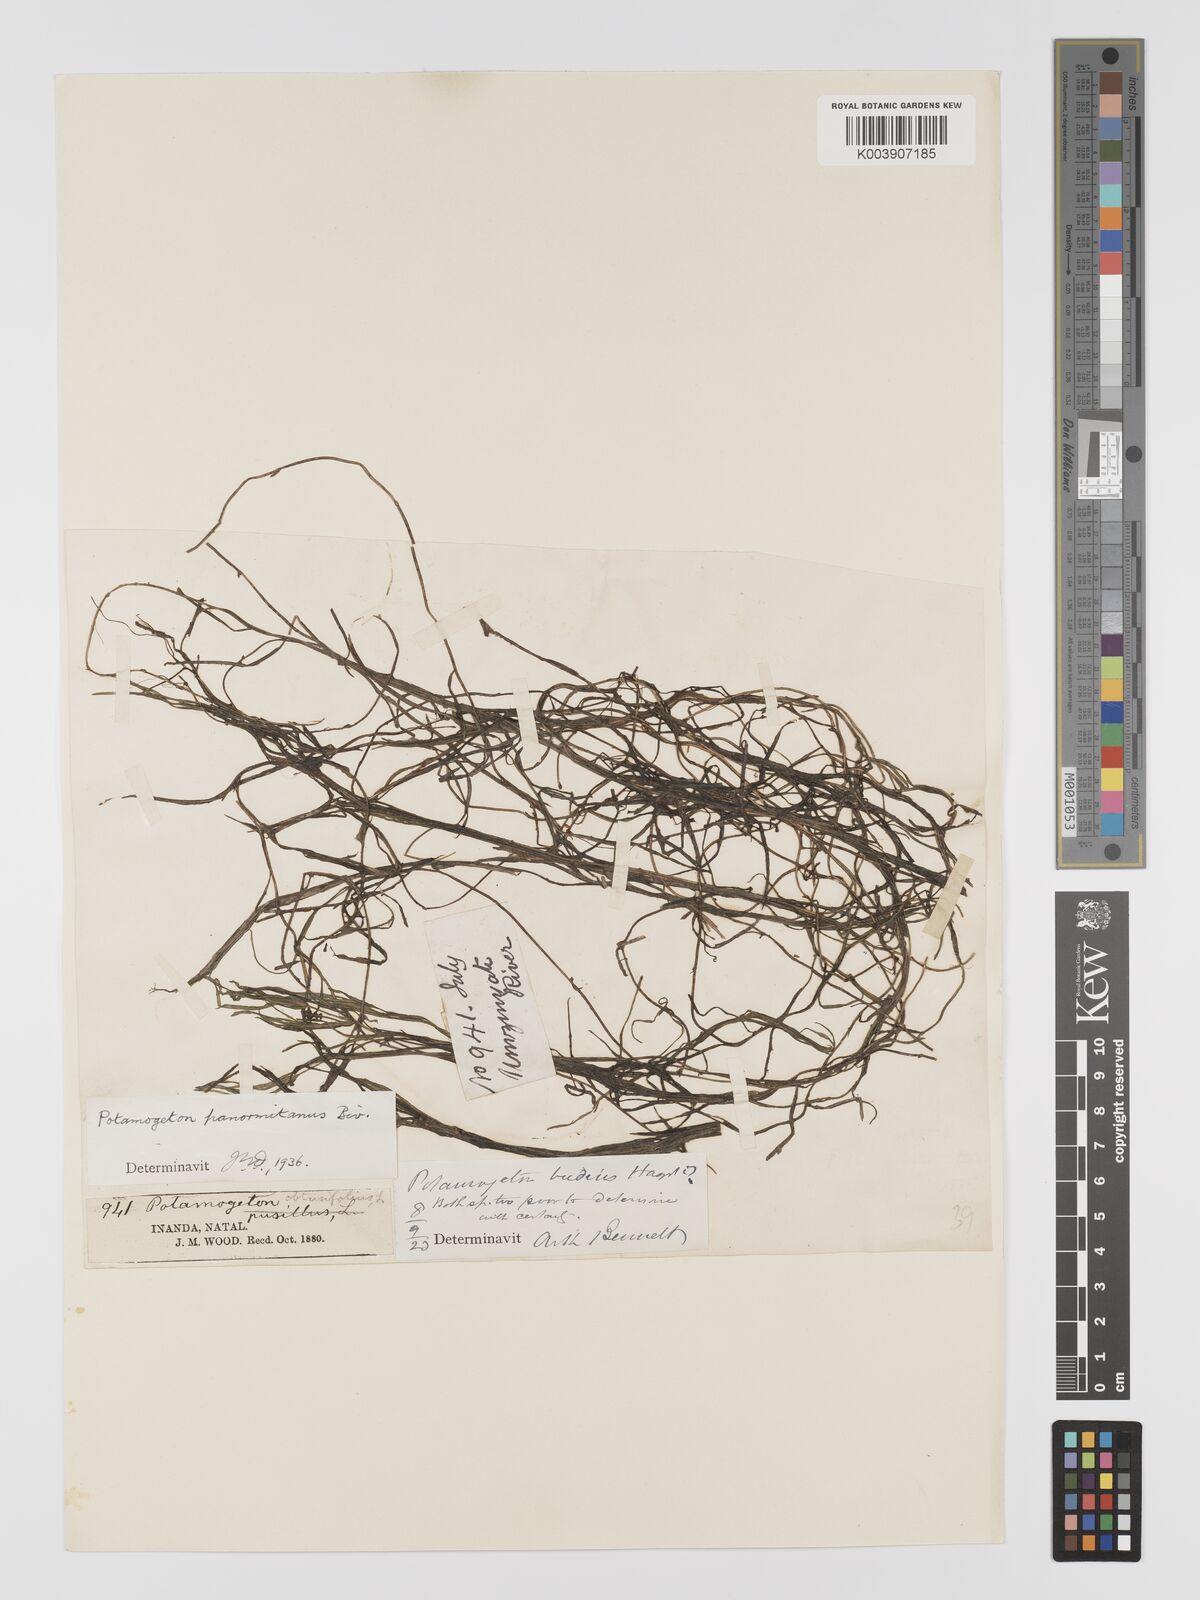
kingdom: Plantae
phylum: Tracheophyta
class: Liliopsida
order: Alismatales
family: Potamogetonaceae
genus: Potamogeton
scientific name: Potamogeton pusillus
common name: Lesser pondweed
